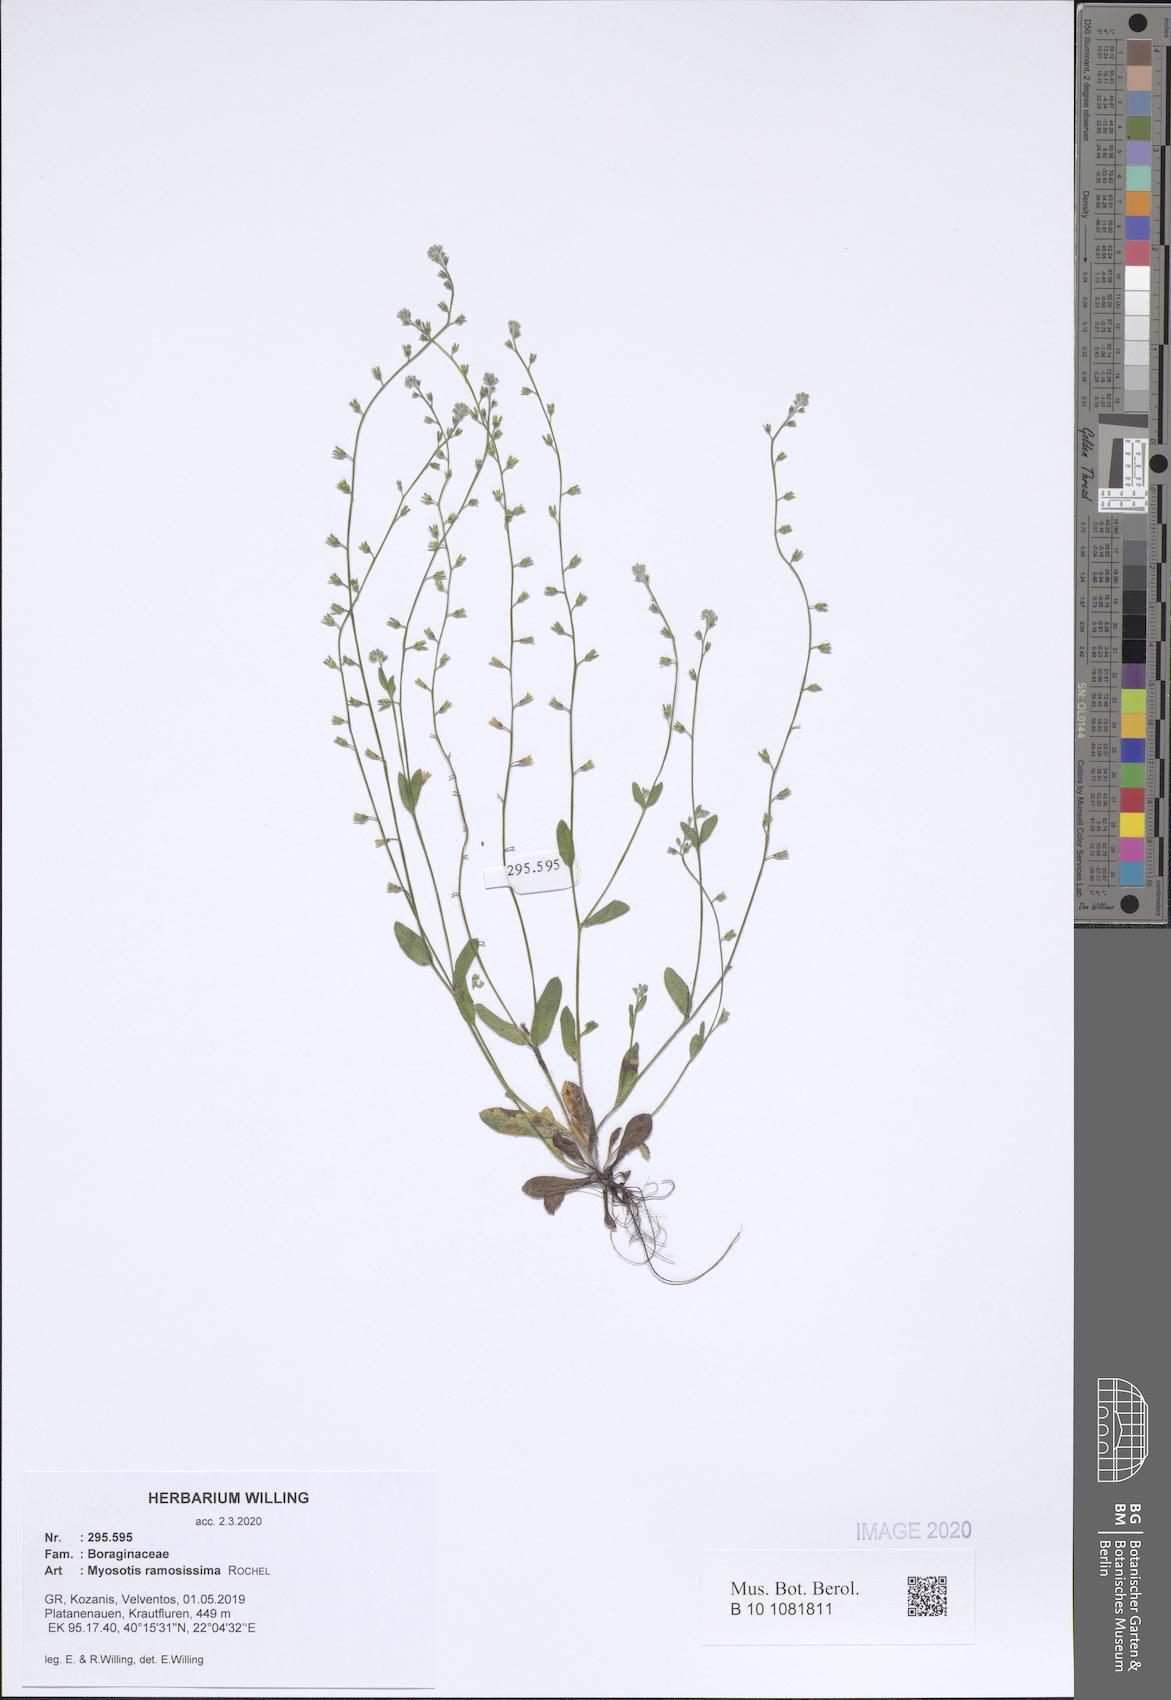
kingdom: Plantae
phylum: Tracheophyta
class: Magnoliopsida
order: Boraginales
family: Boraginaceae
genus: Myosotis
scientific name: Myosotis ramosissima
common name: Early forget-me-not
